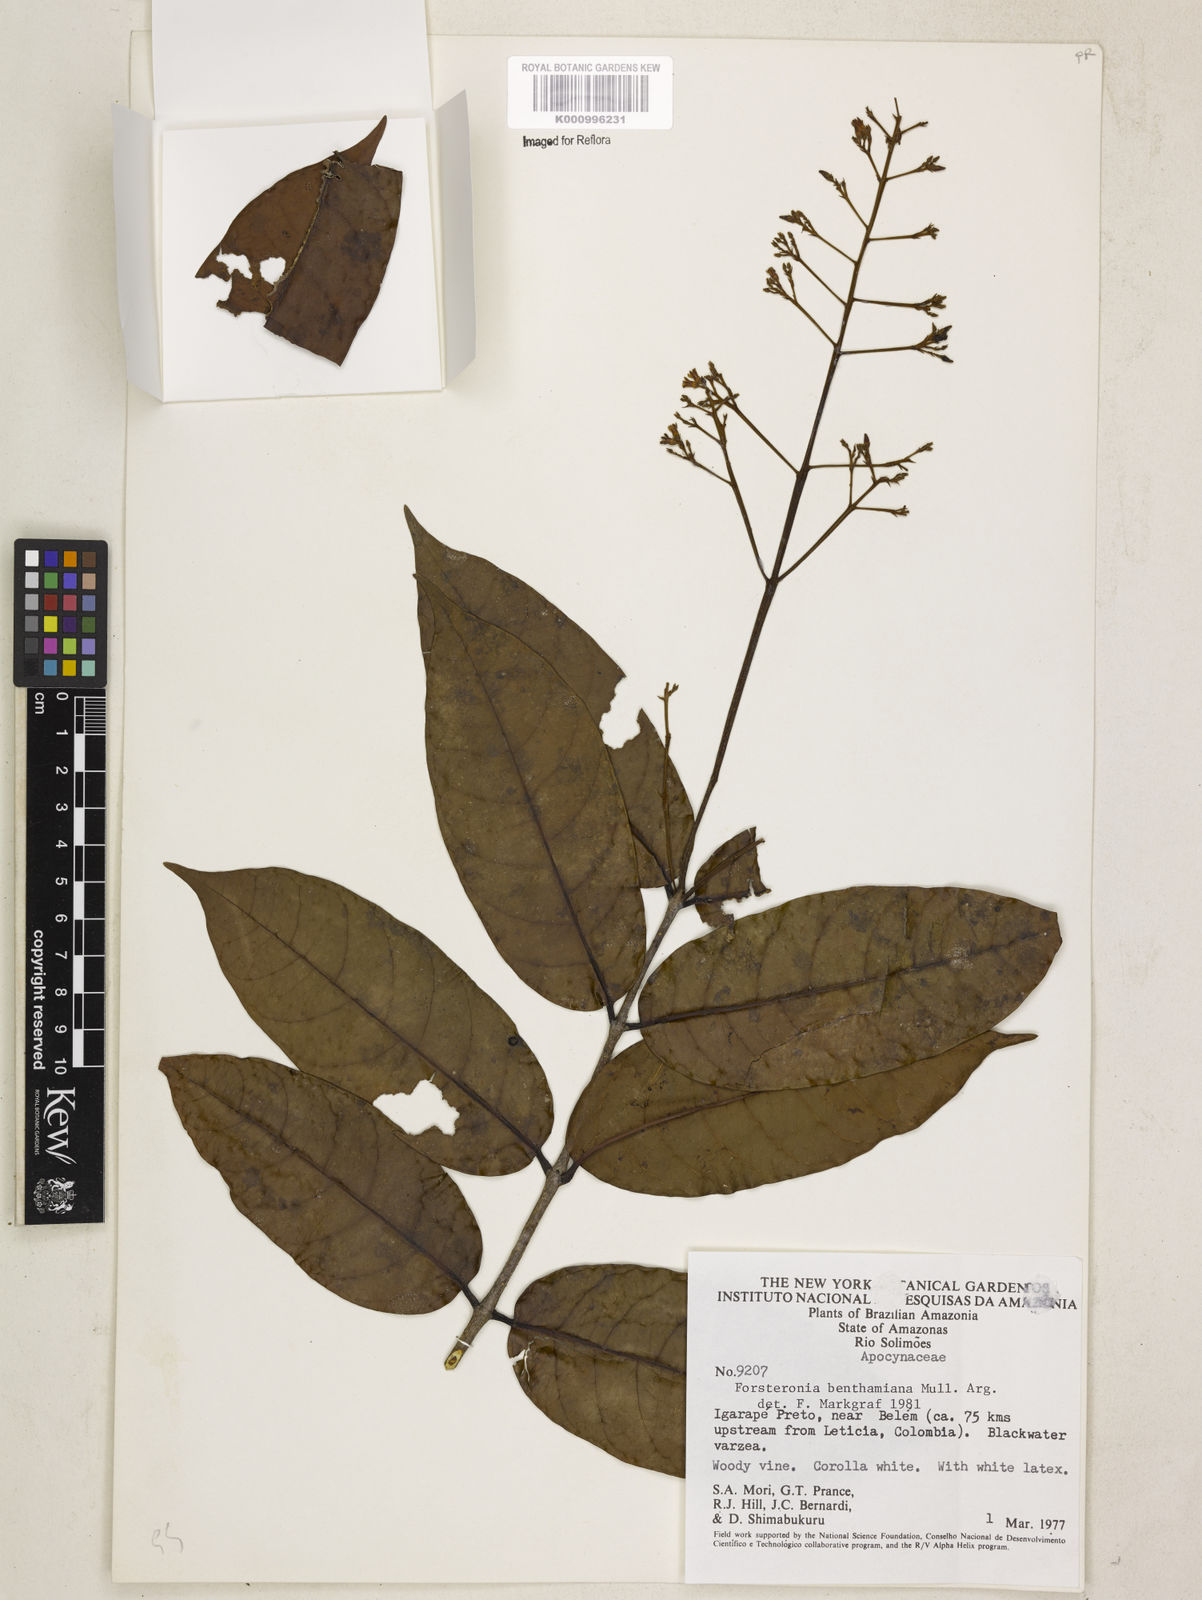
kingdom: Plantae
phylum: Tracheophyta
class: Magnoliopsida
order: Gentianales
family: Apocynaceae
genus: Forsteronia
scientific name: Forsteronia
